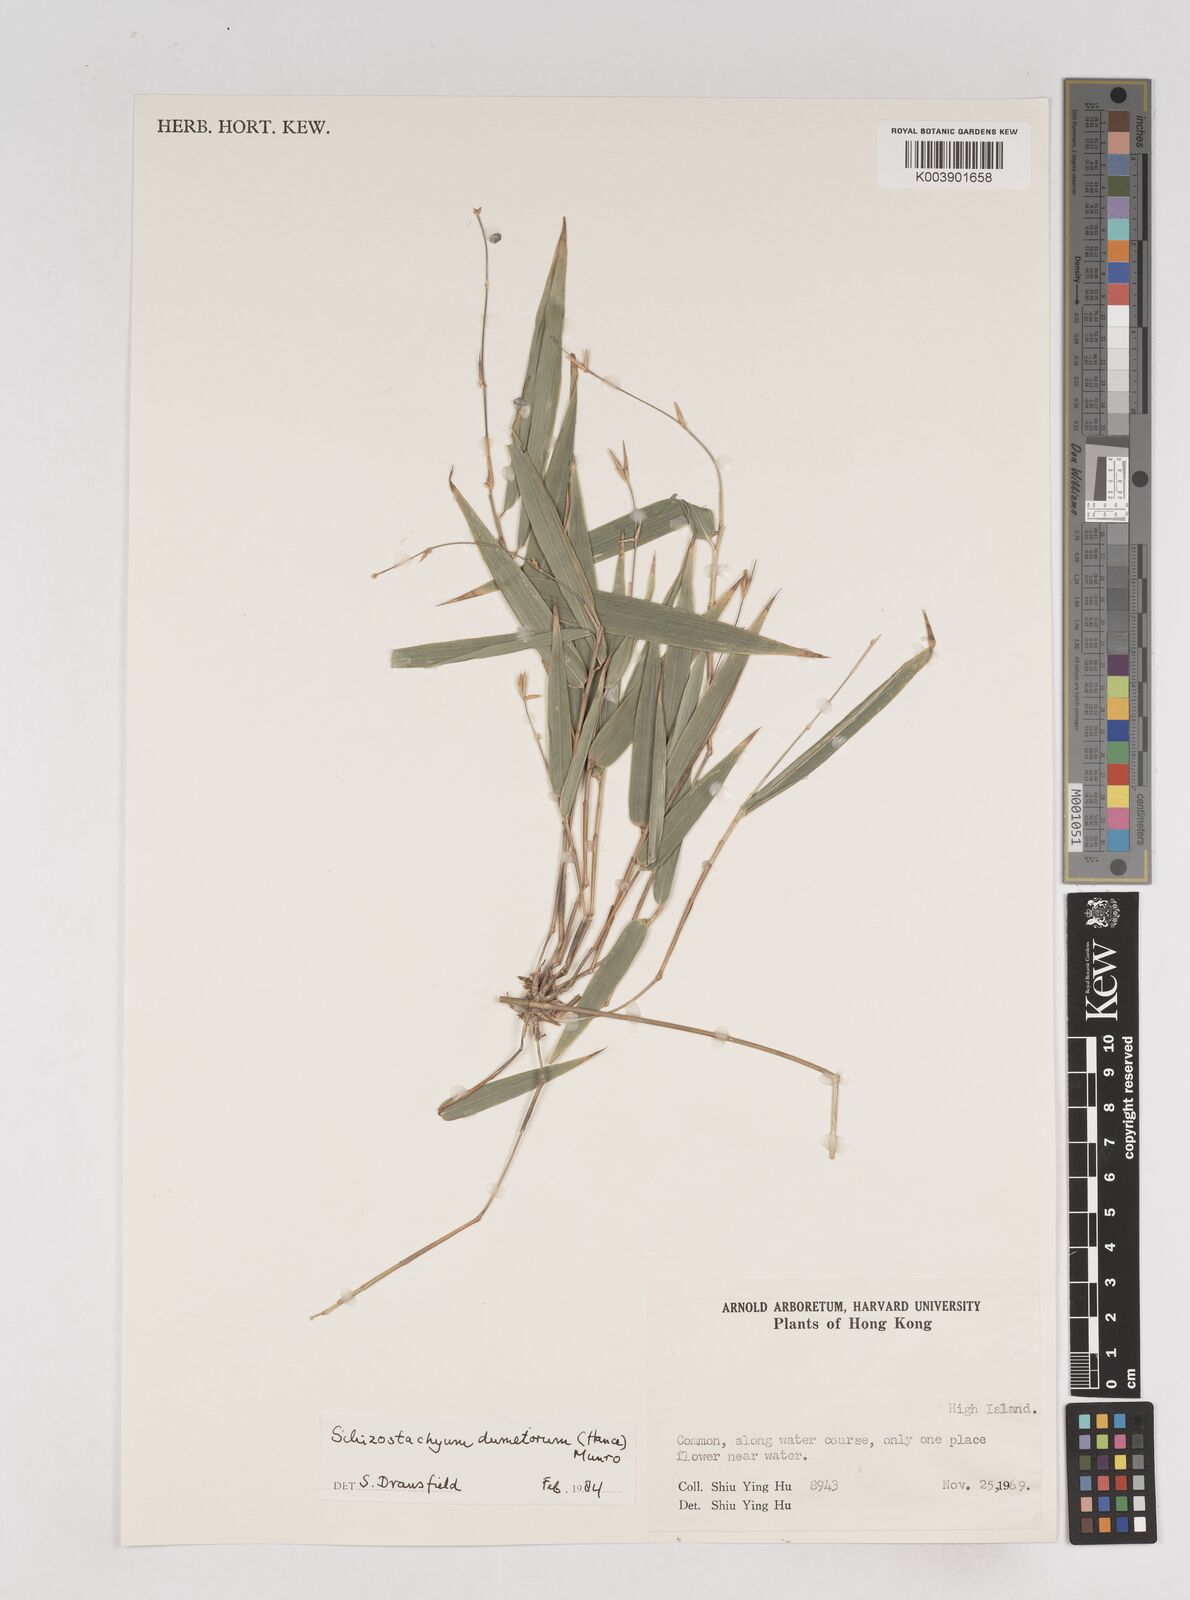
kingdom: Plantae
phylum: Tracheophyta
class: Liliopsida
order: Poales
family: Poaceae
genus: Schizostachyum
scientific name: Schizostachyum dumetorum
